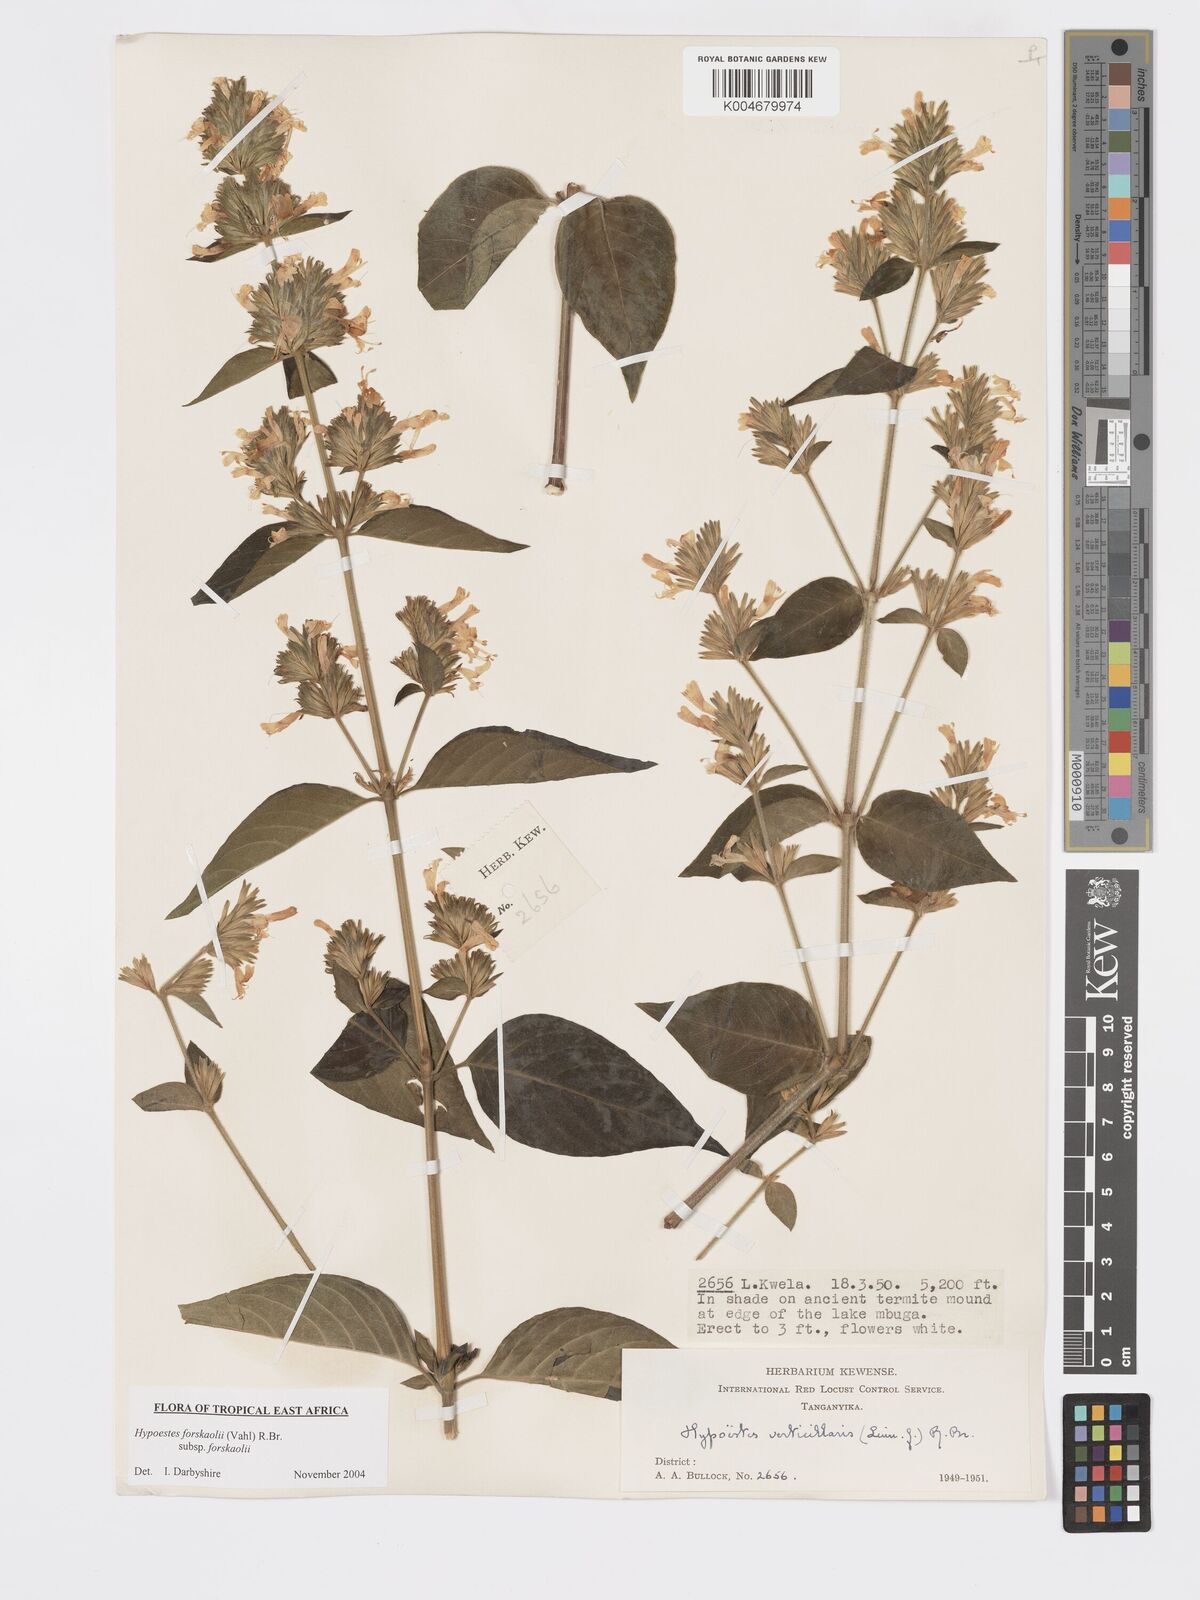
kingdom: Plantae
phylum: Tracheophyta
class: Magnoliopsida
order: Lamiales
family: Acanthaceae
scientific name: Acanthaceae
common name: Acanthaceae
